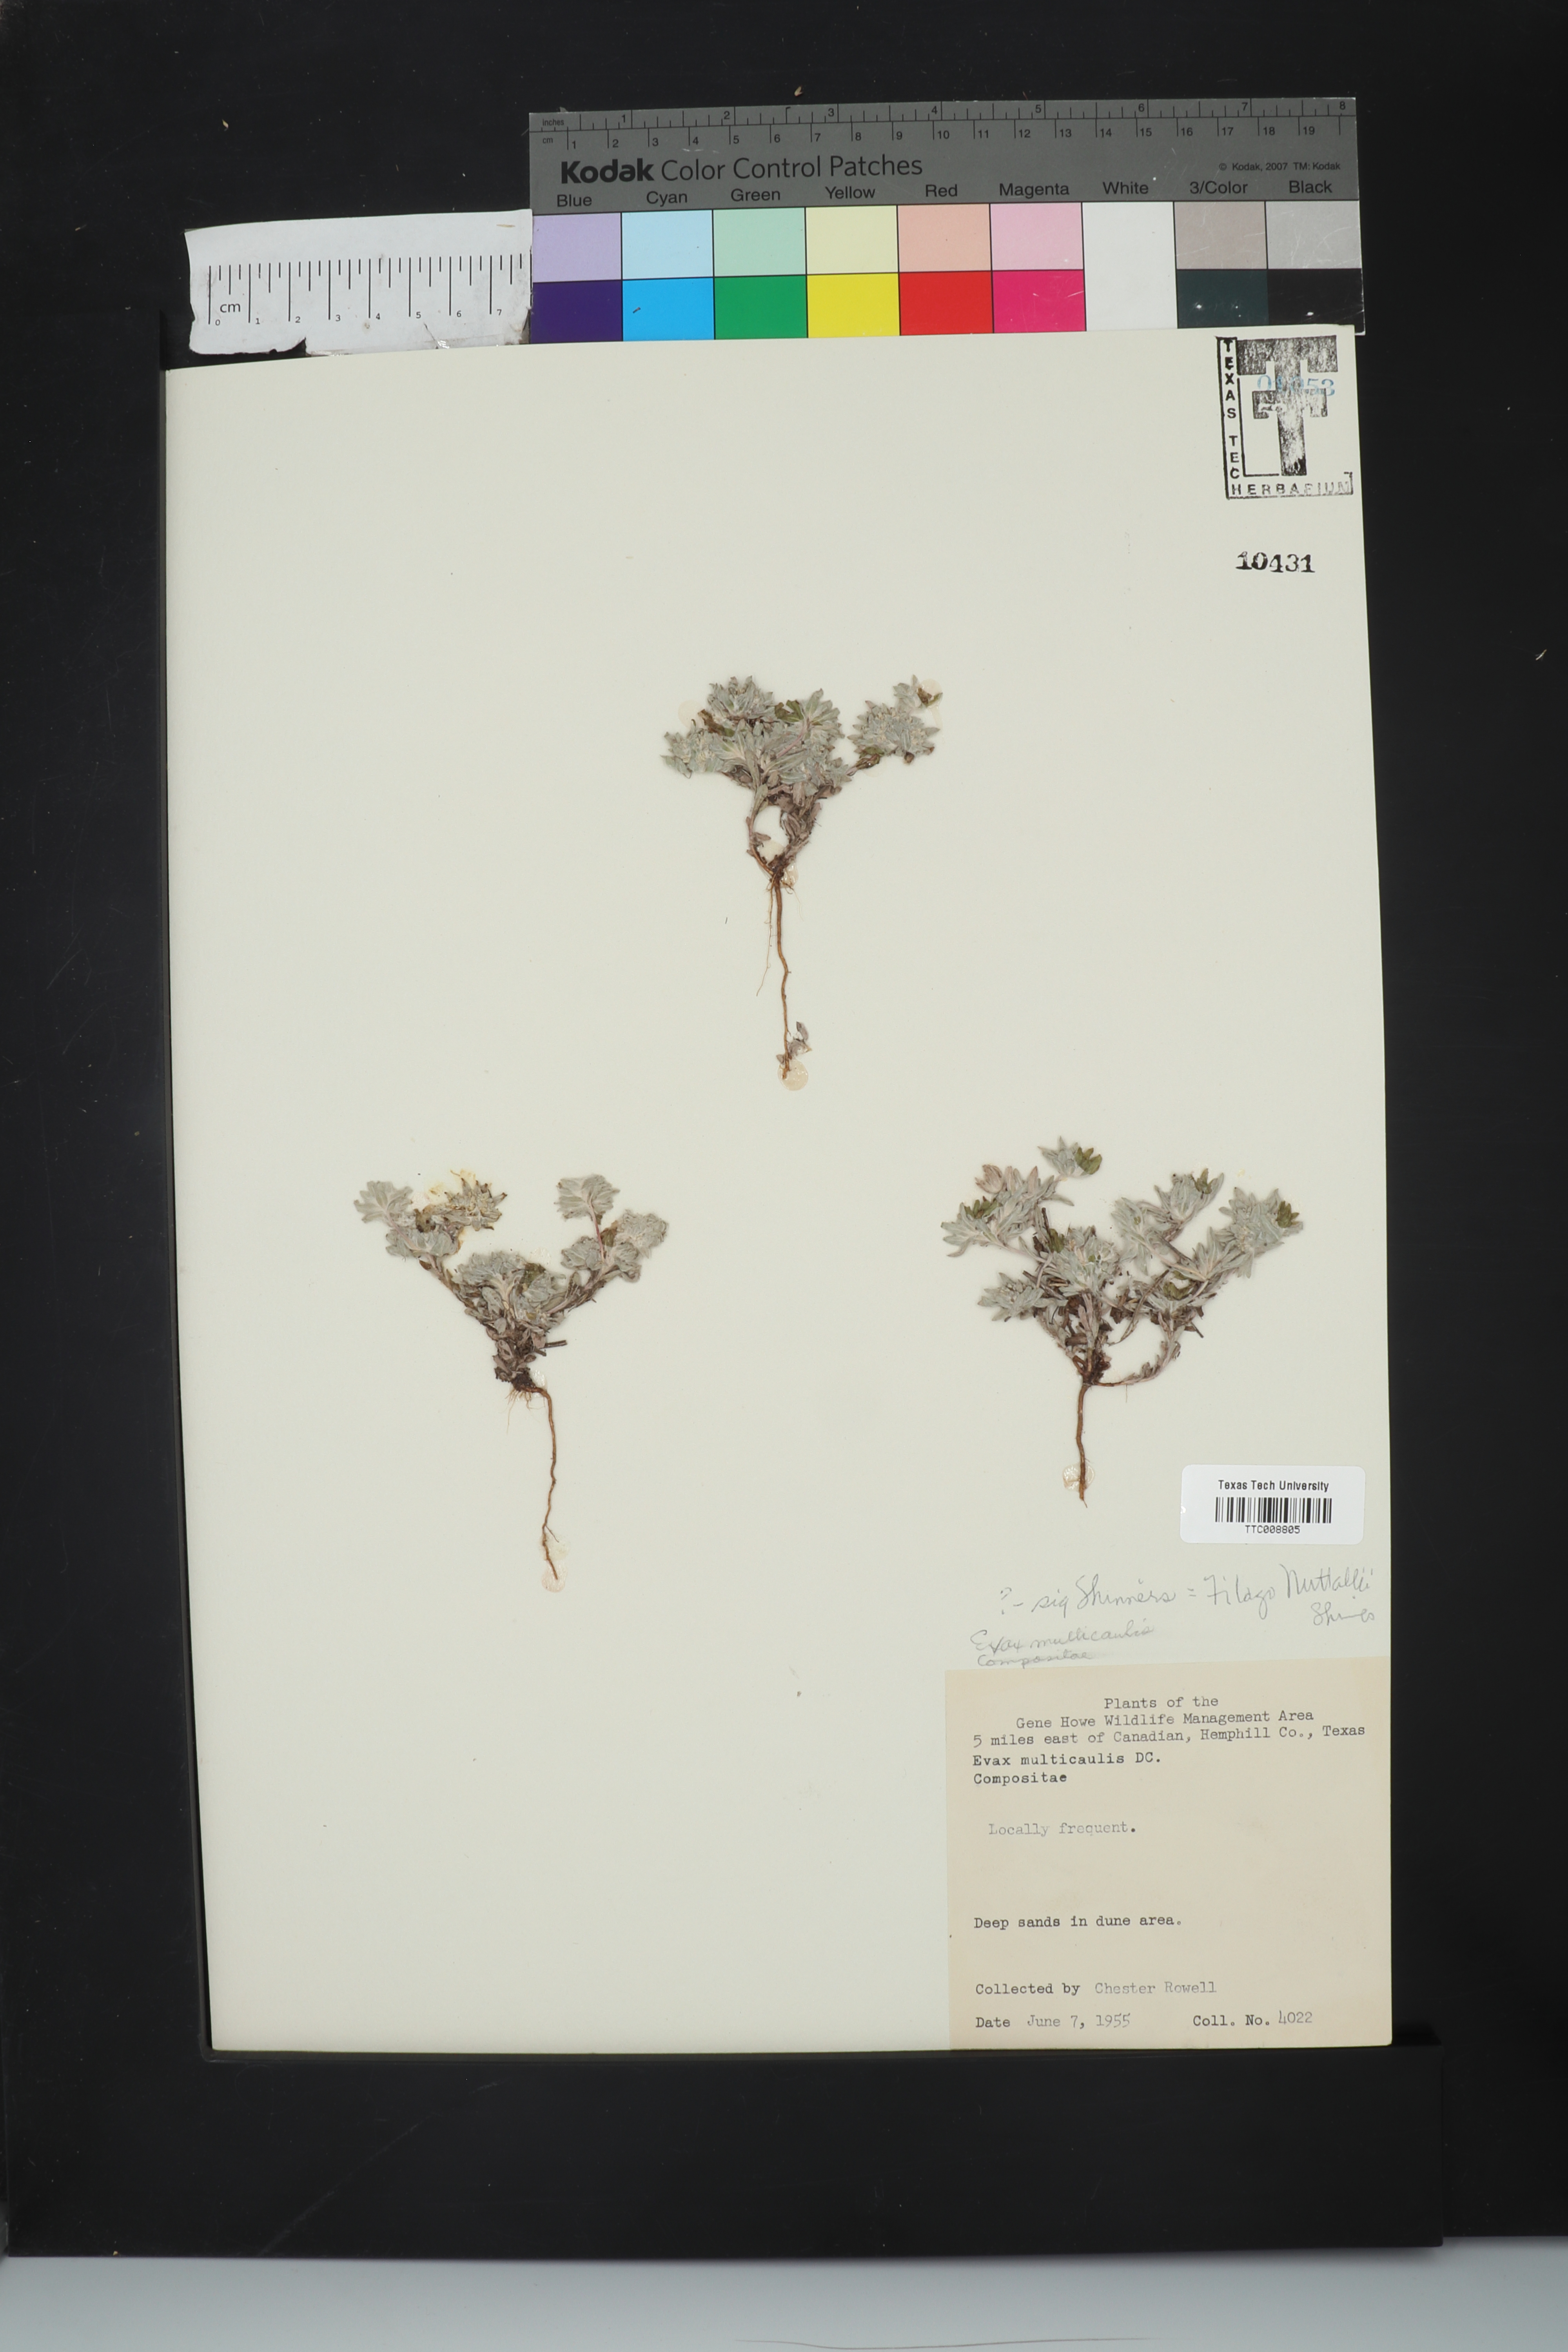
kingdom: Plantae
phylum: Tracheophyta
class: Magnoliopsida
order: Asterales
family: Asteraceae
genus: Diaperia
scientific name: Diaperia verna
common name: Many-stem rabbit-tobacco
